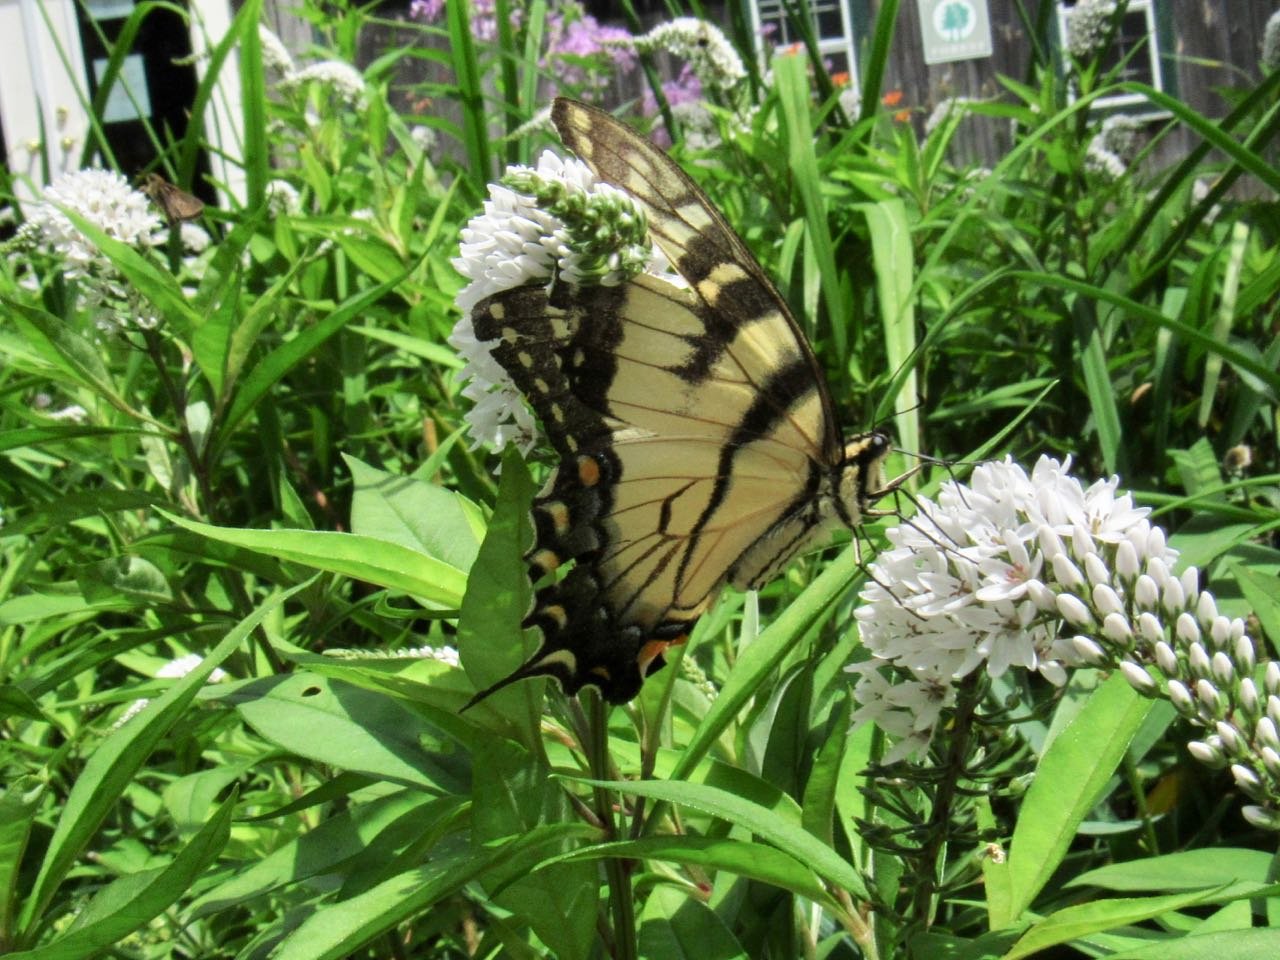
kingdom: Animalia
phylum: Arthropoda
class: Insecta
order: Lepidoptera
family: Papilionidae
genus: Pterourus
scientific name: Pterourus
